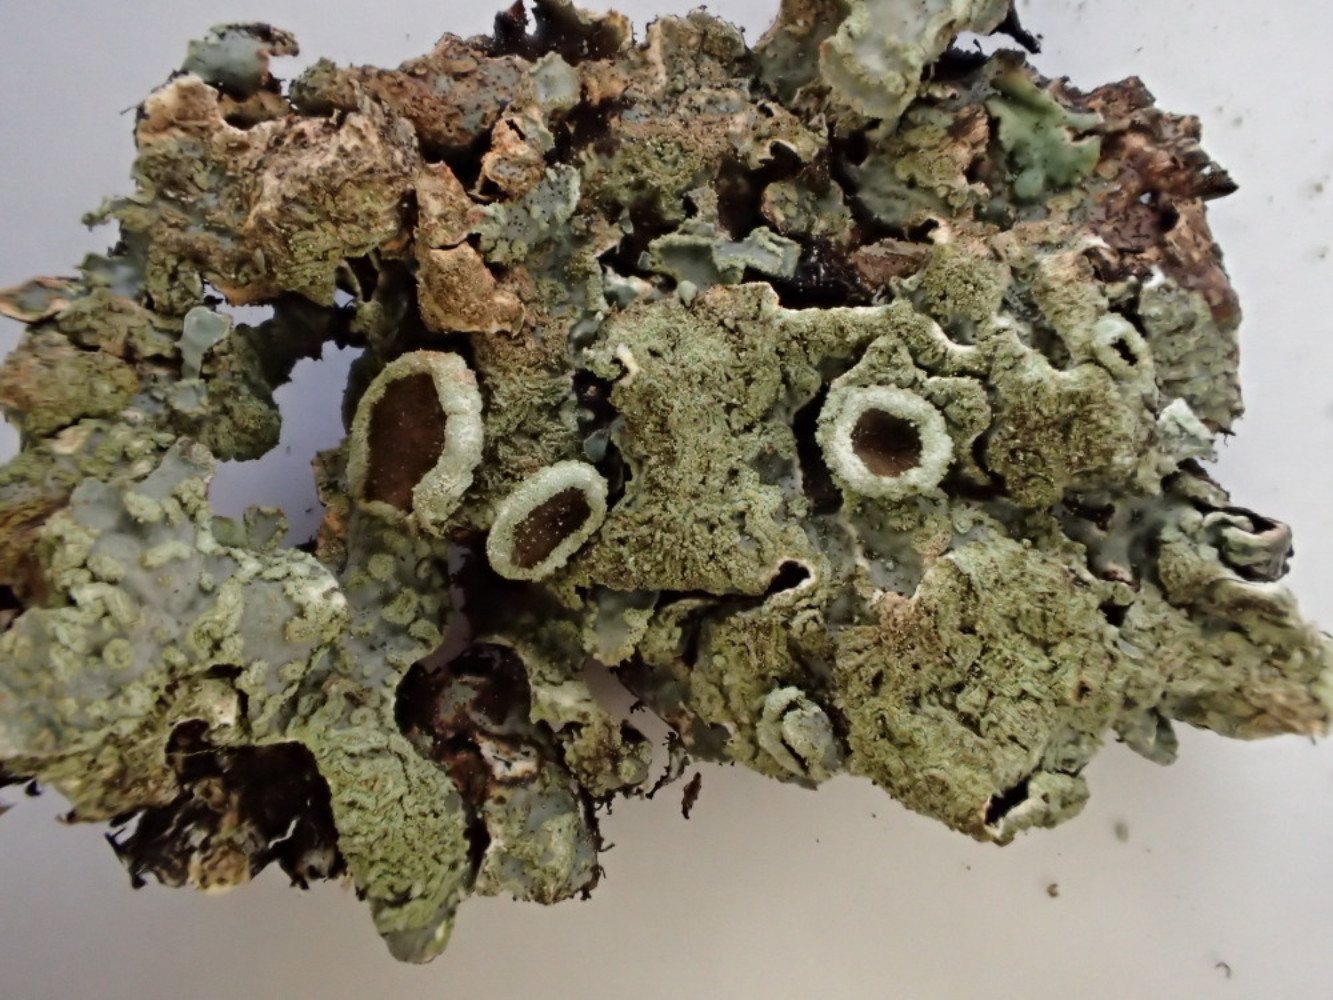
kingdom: Fungi
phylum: Ascomycota
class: Lecanoromycetes
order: Lecanorales
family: Parmeliaceae
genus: Parmelia
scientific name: Parmelia sulcata
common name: rynket skållav
